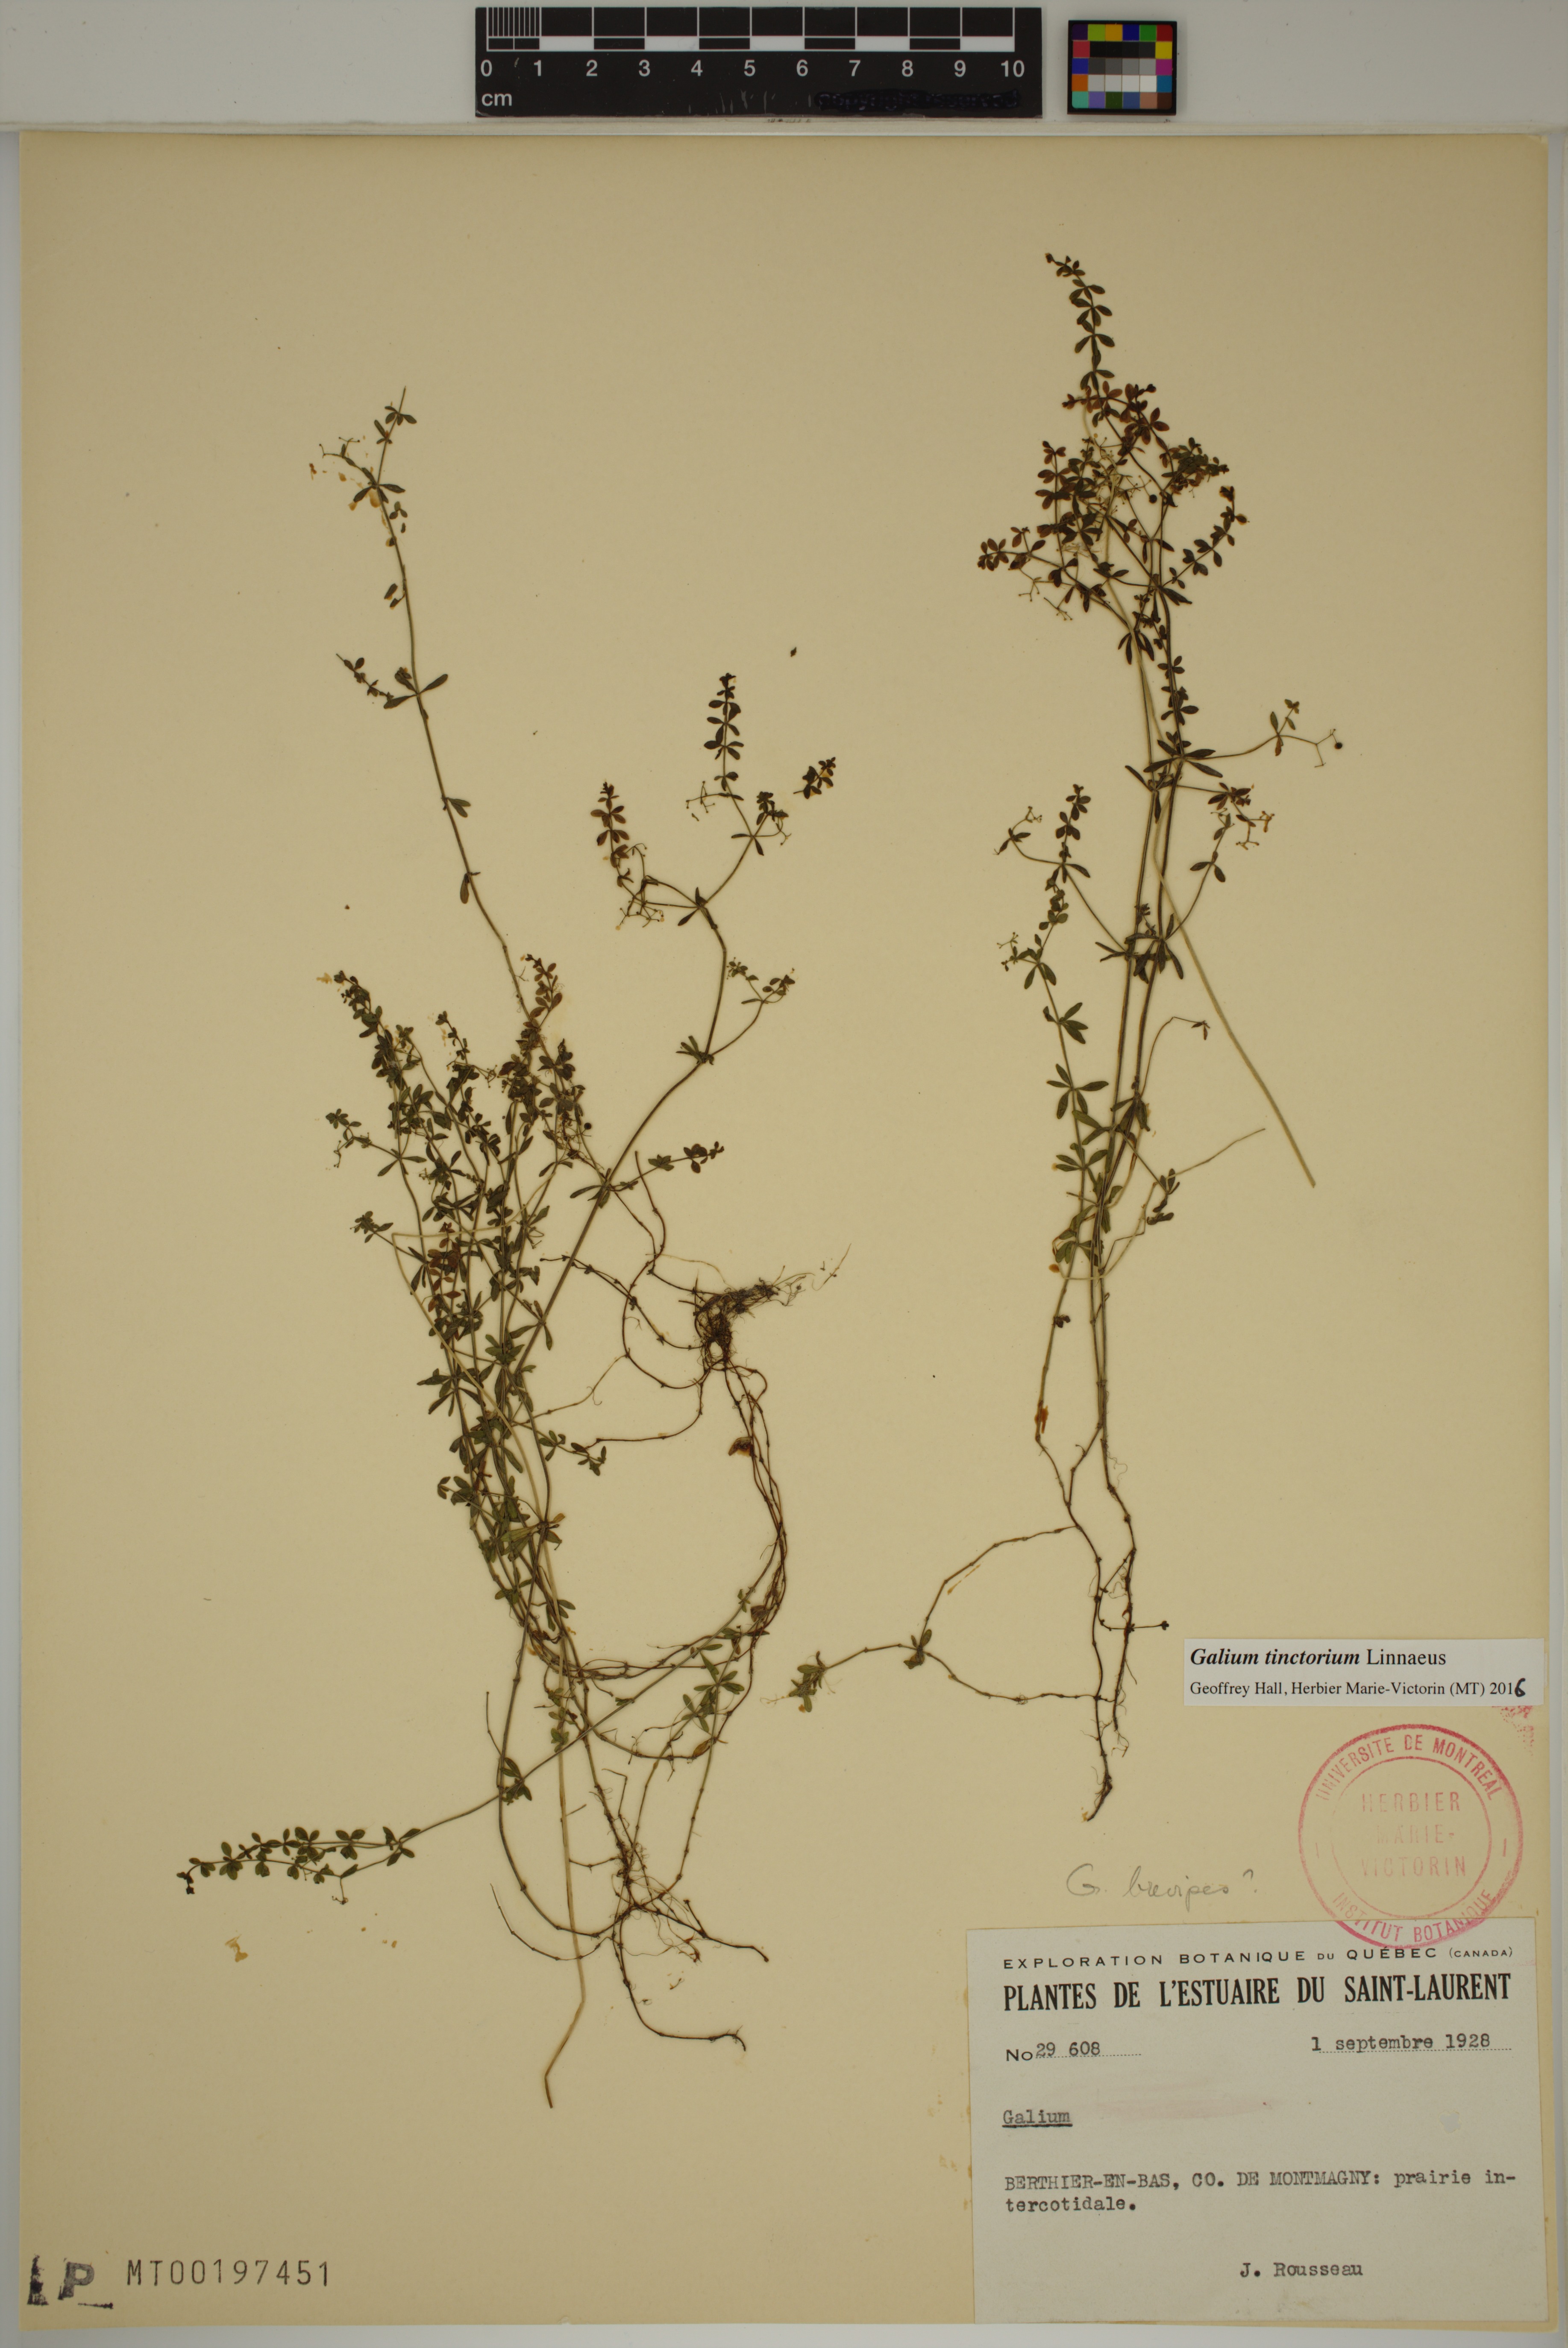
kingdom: Plantae
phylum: Tracheophyta
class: Magnoliopsida
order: Gentianales
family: Rubiaceae
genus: Galium
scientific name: Galium tinctorium
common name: Bedstraw
